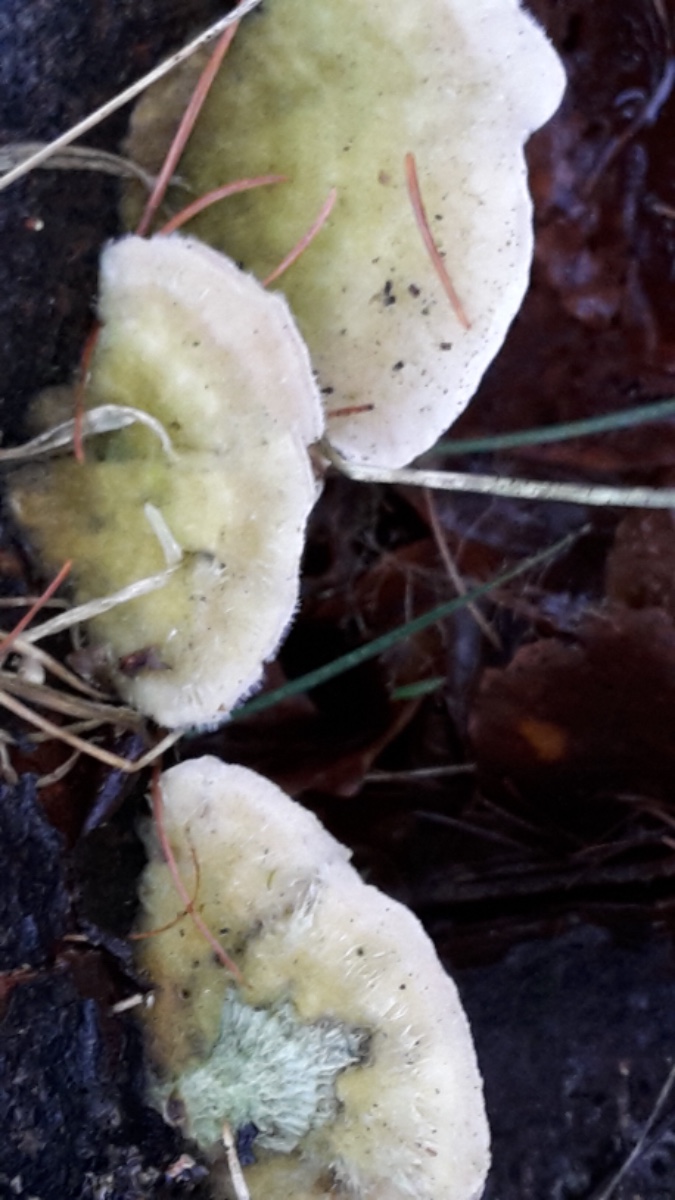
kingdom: Fungi
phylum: Basidiomycota
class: Agaricomycetes
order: Polyporales
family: Polyporaceae
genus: Trametes
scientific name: Trametes hirsuta
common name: håret læderporesvamp
